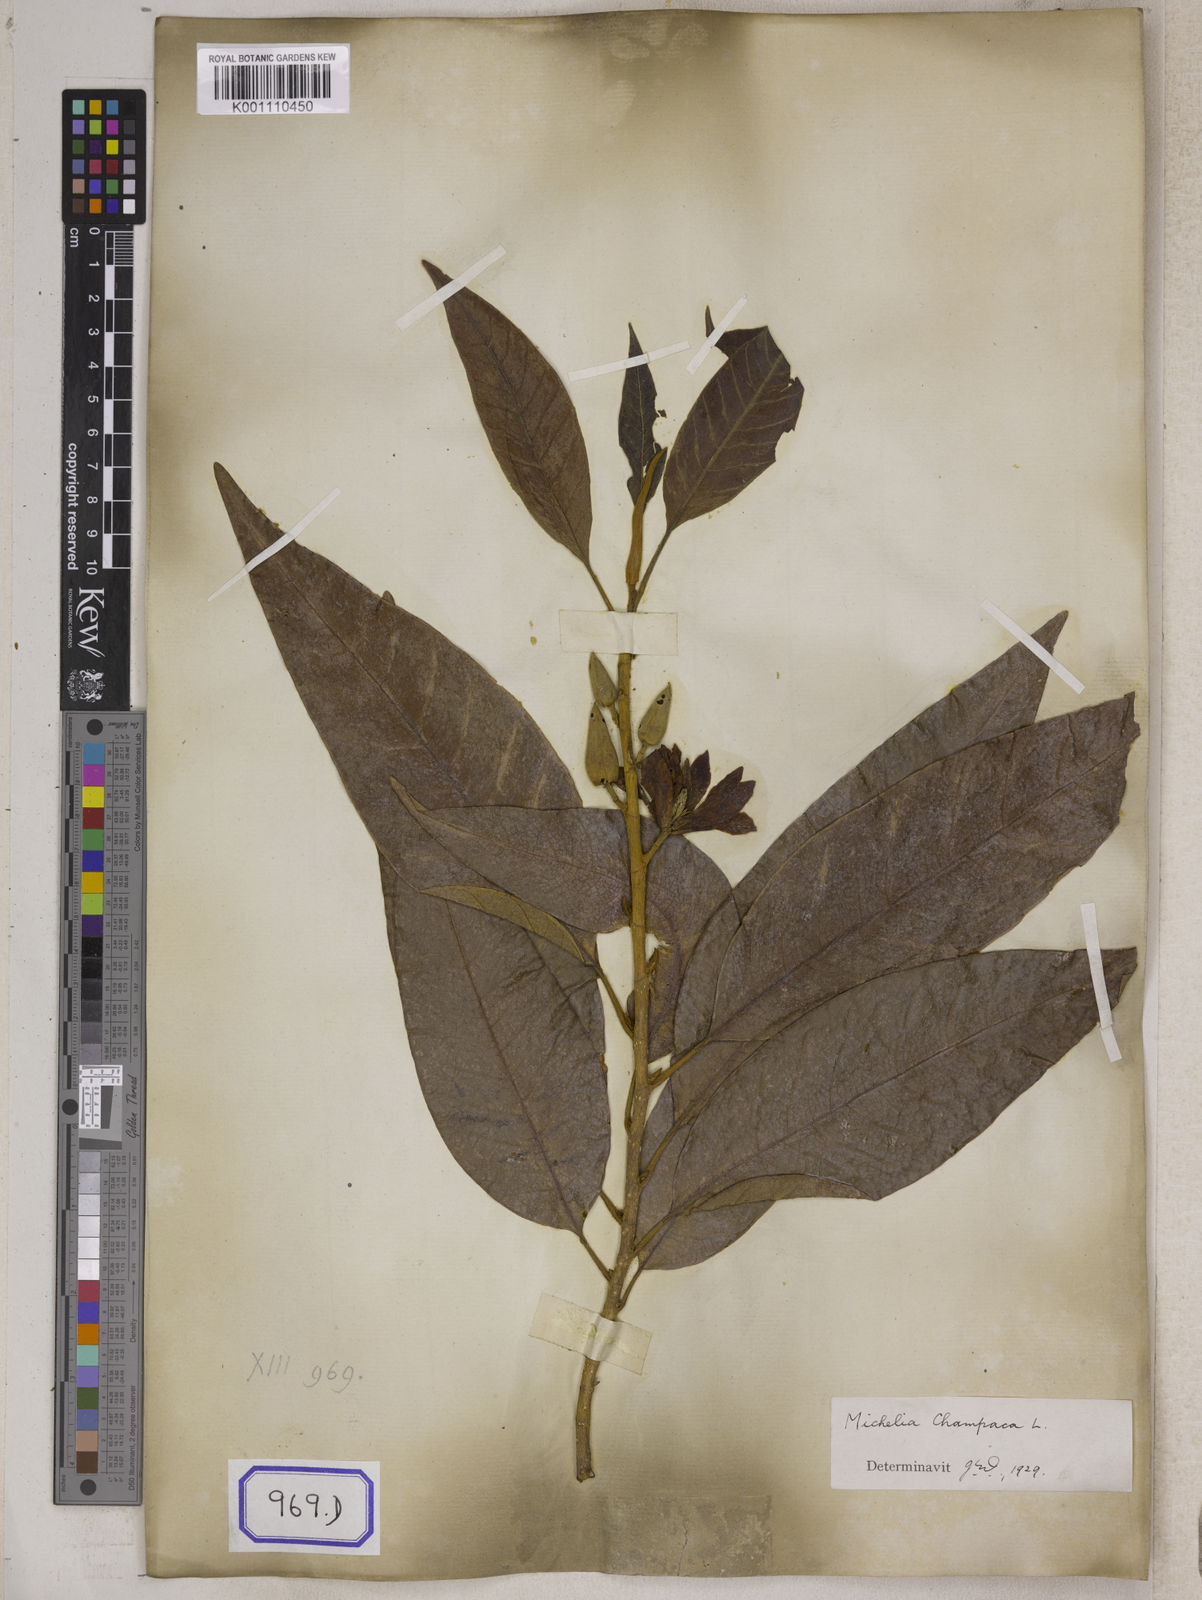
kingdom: Plantae
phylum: Tracheophyta
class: Magnoliopsida
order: Magnoliales
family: Magnoliaceae
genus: Magnolia
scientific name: Magnolia champaca
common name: Champak
